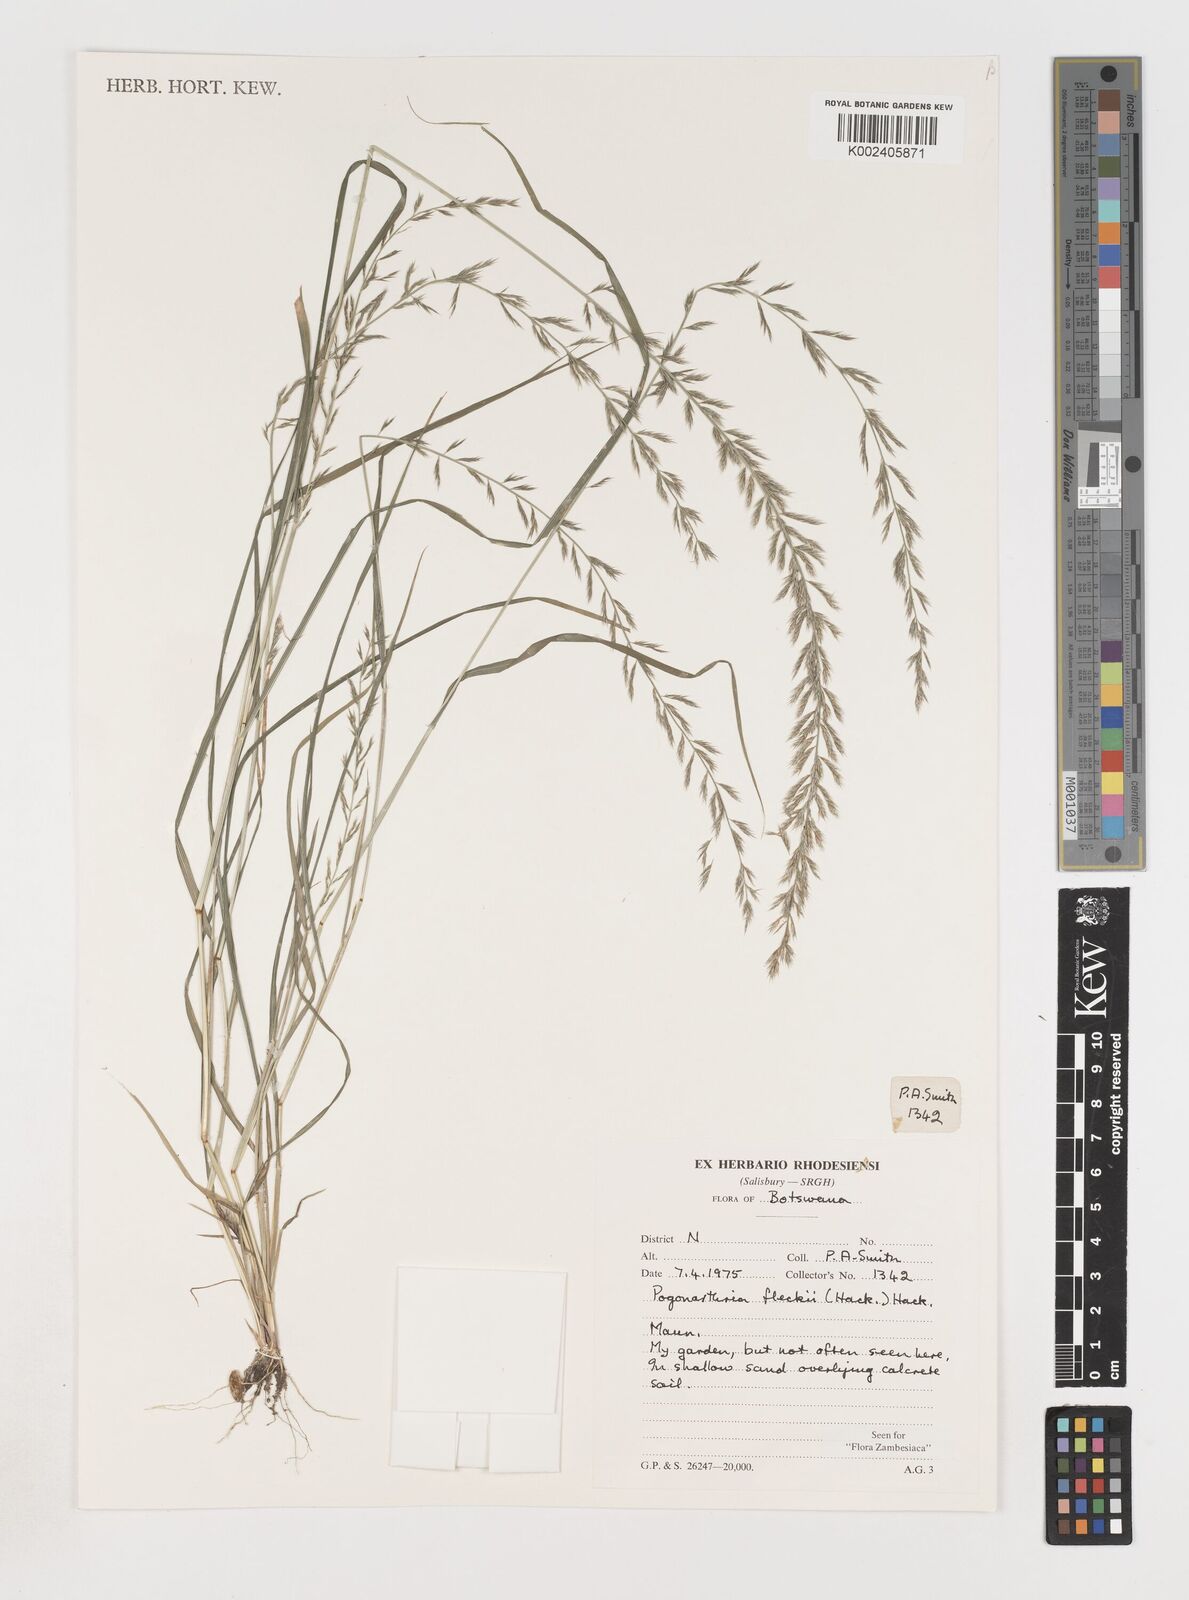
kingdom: Plantae
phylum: Tracheophyta
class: Liliopsida
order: Poales
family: Poaceae
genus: Pogonarthria
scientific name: Pogonarthria fleckii
